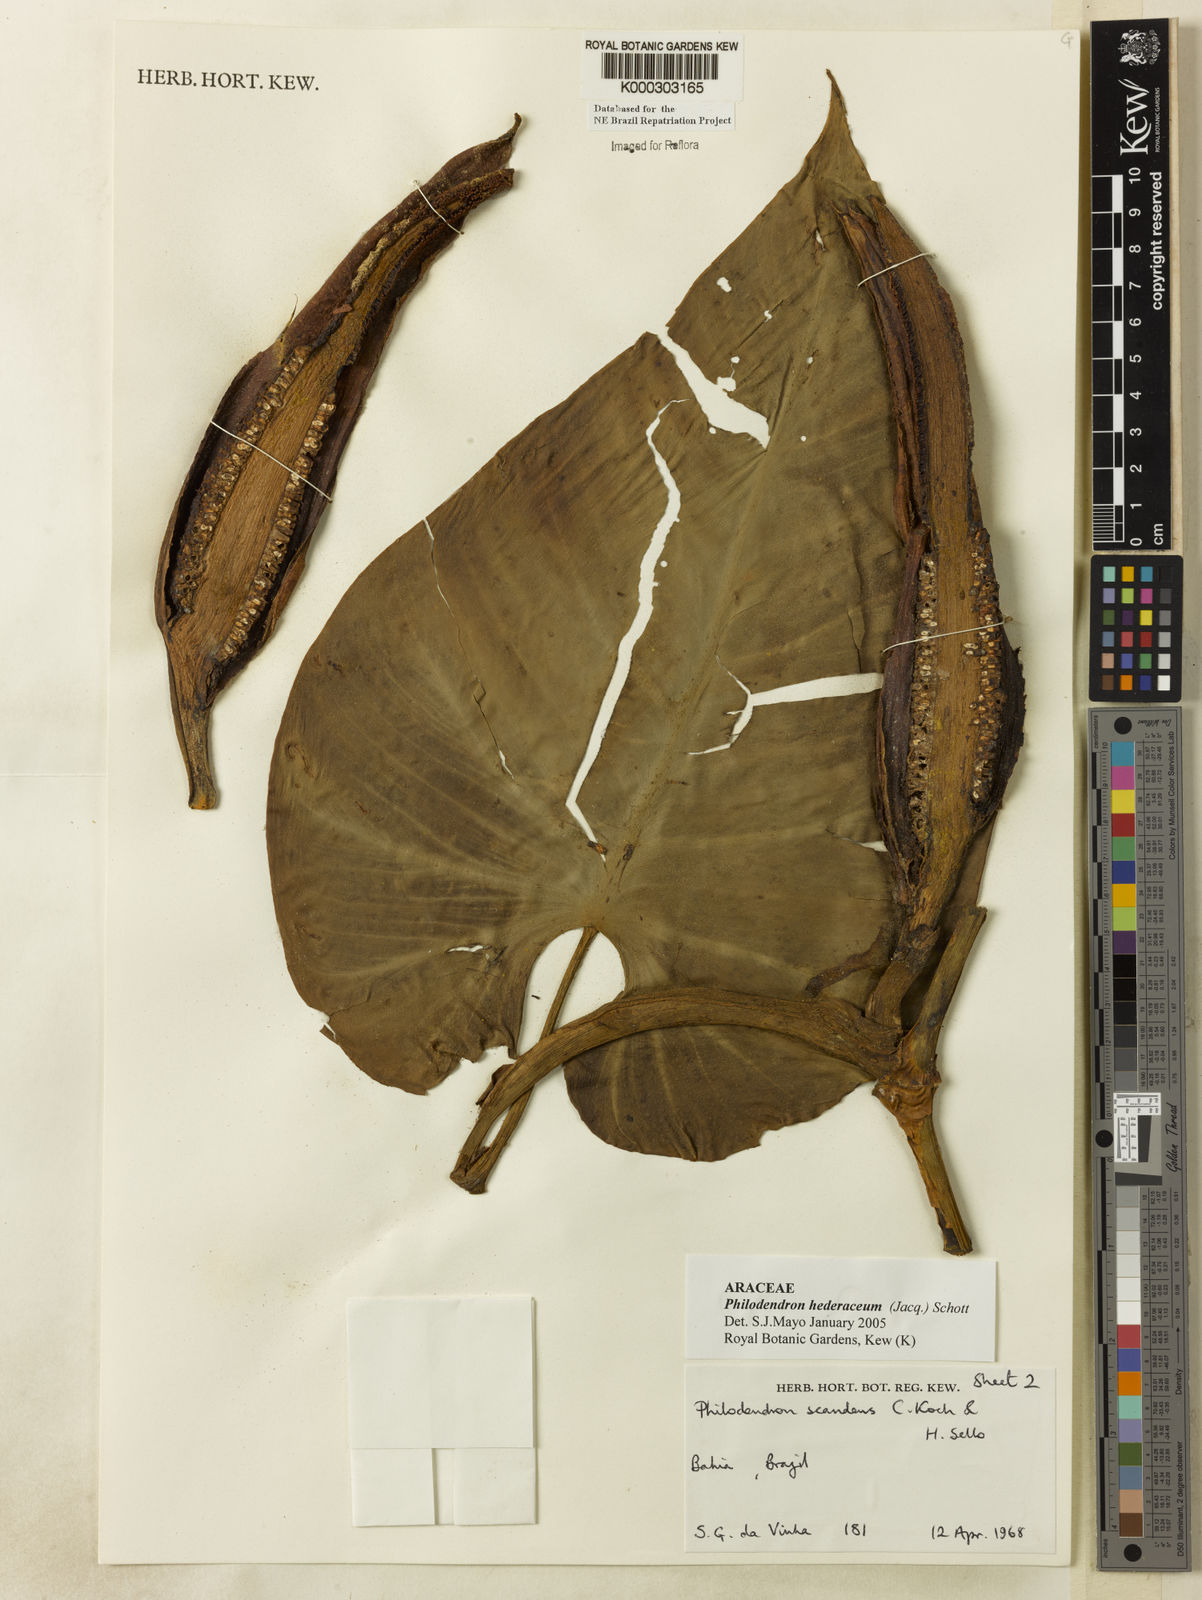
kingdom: Plantae
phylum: Tracheophyta
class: Liliopsida
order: Alismatales
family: Araceae
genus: Philodendron
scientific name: Philodendron hederaceum
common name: Vilevine
